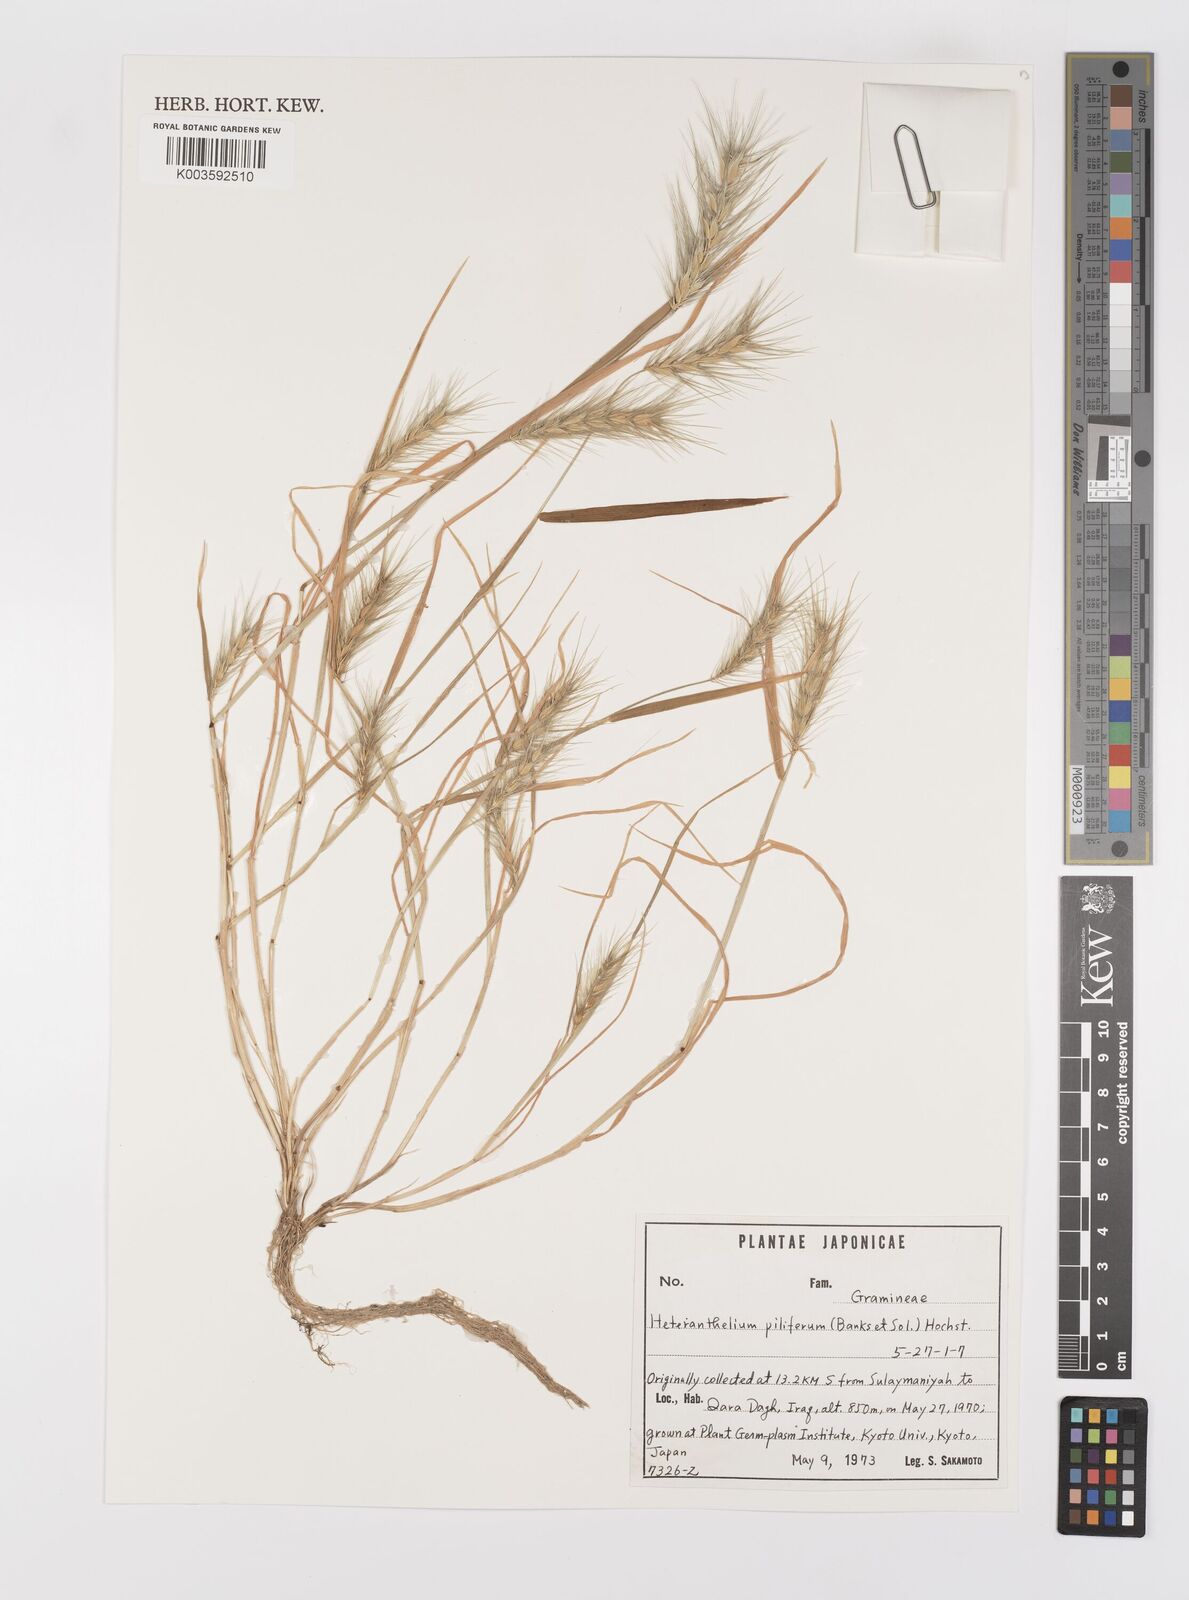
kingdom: Plantae
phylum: Tracheophyta
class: Liliopsida
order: Poales
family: Poaceae
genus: Heteranthelium
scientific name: Heteranthelium piliferum
